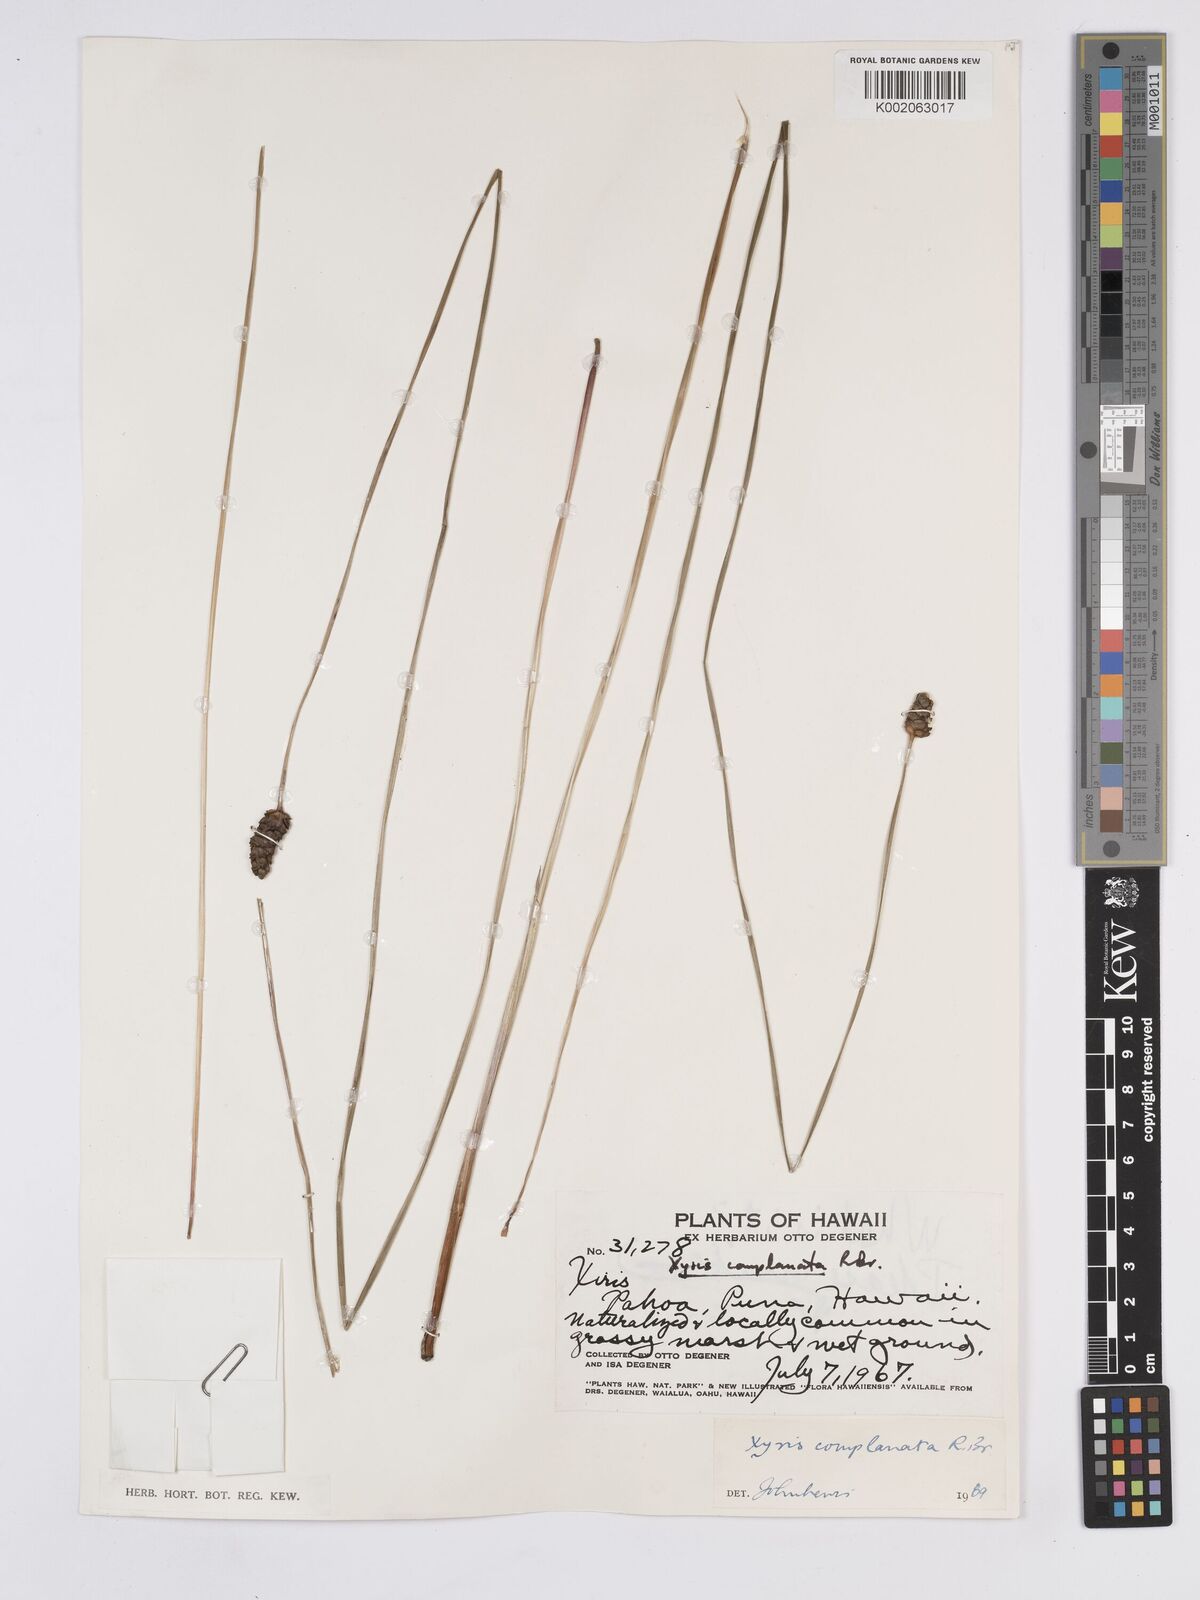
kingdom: Plantae
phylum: Tracheophyta
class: Liliopsida
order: Poales
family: Xyridaceae
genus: Xyris
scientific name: Xyris complanata
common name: Hawai'i yelloweyed grass
